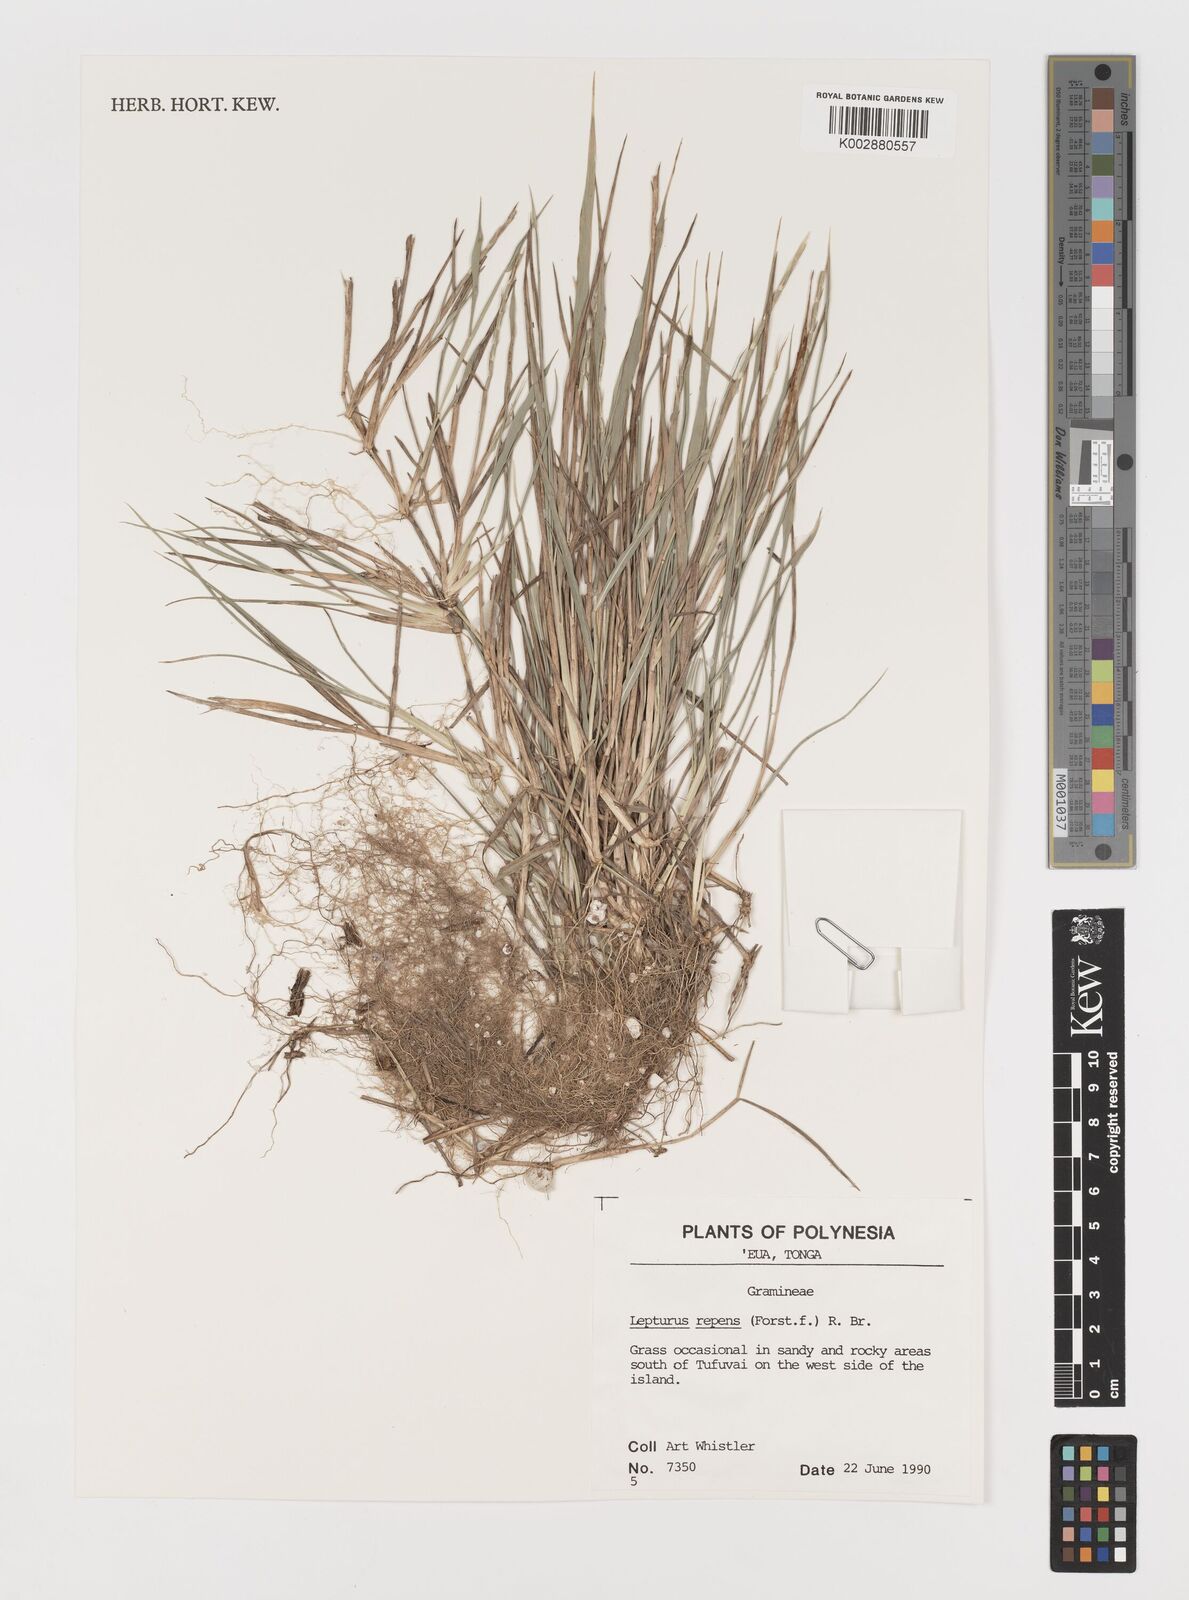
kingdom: Plantae
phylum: Tracheophyta
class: Liliopsida
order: Poales
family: Poaceae
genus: Lepturus
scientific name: Lepturus repens
